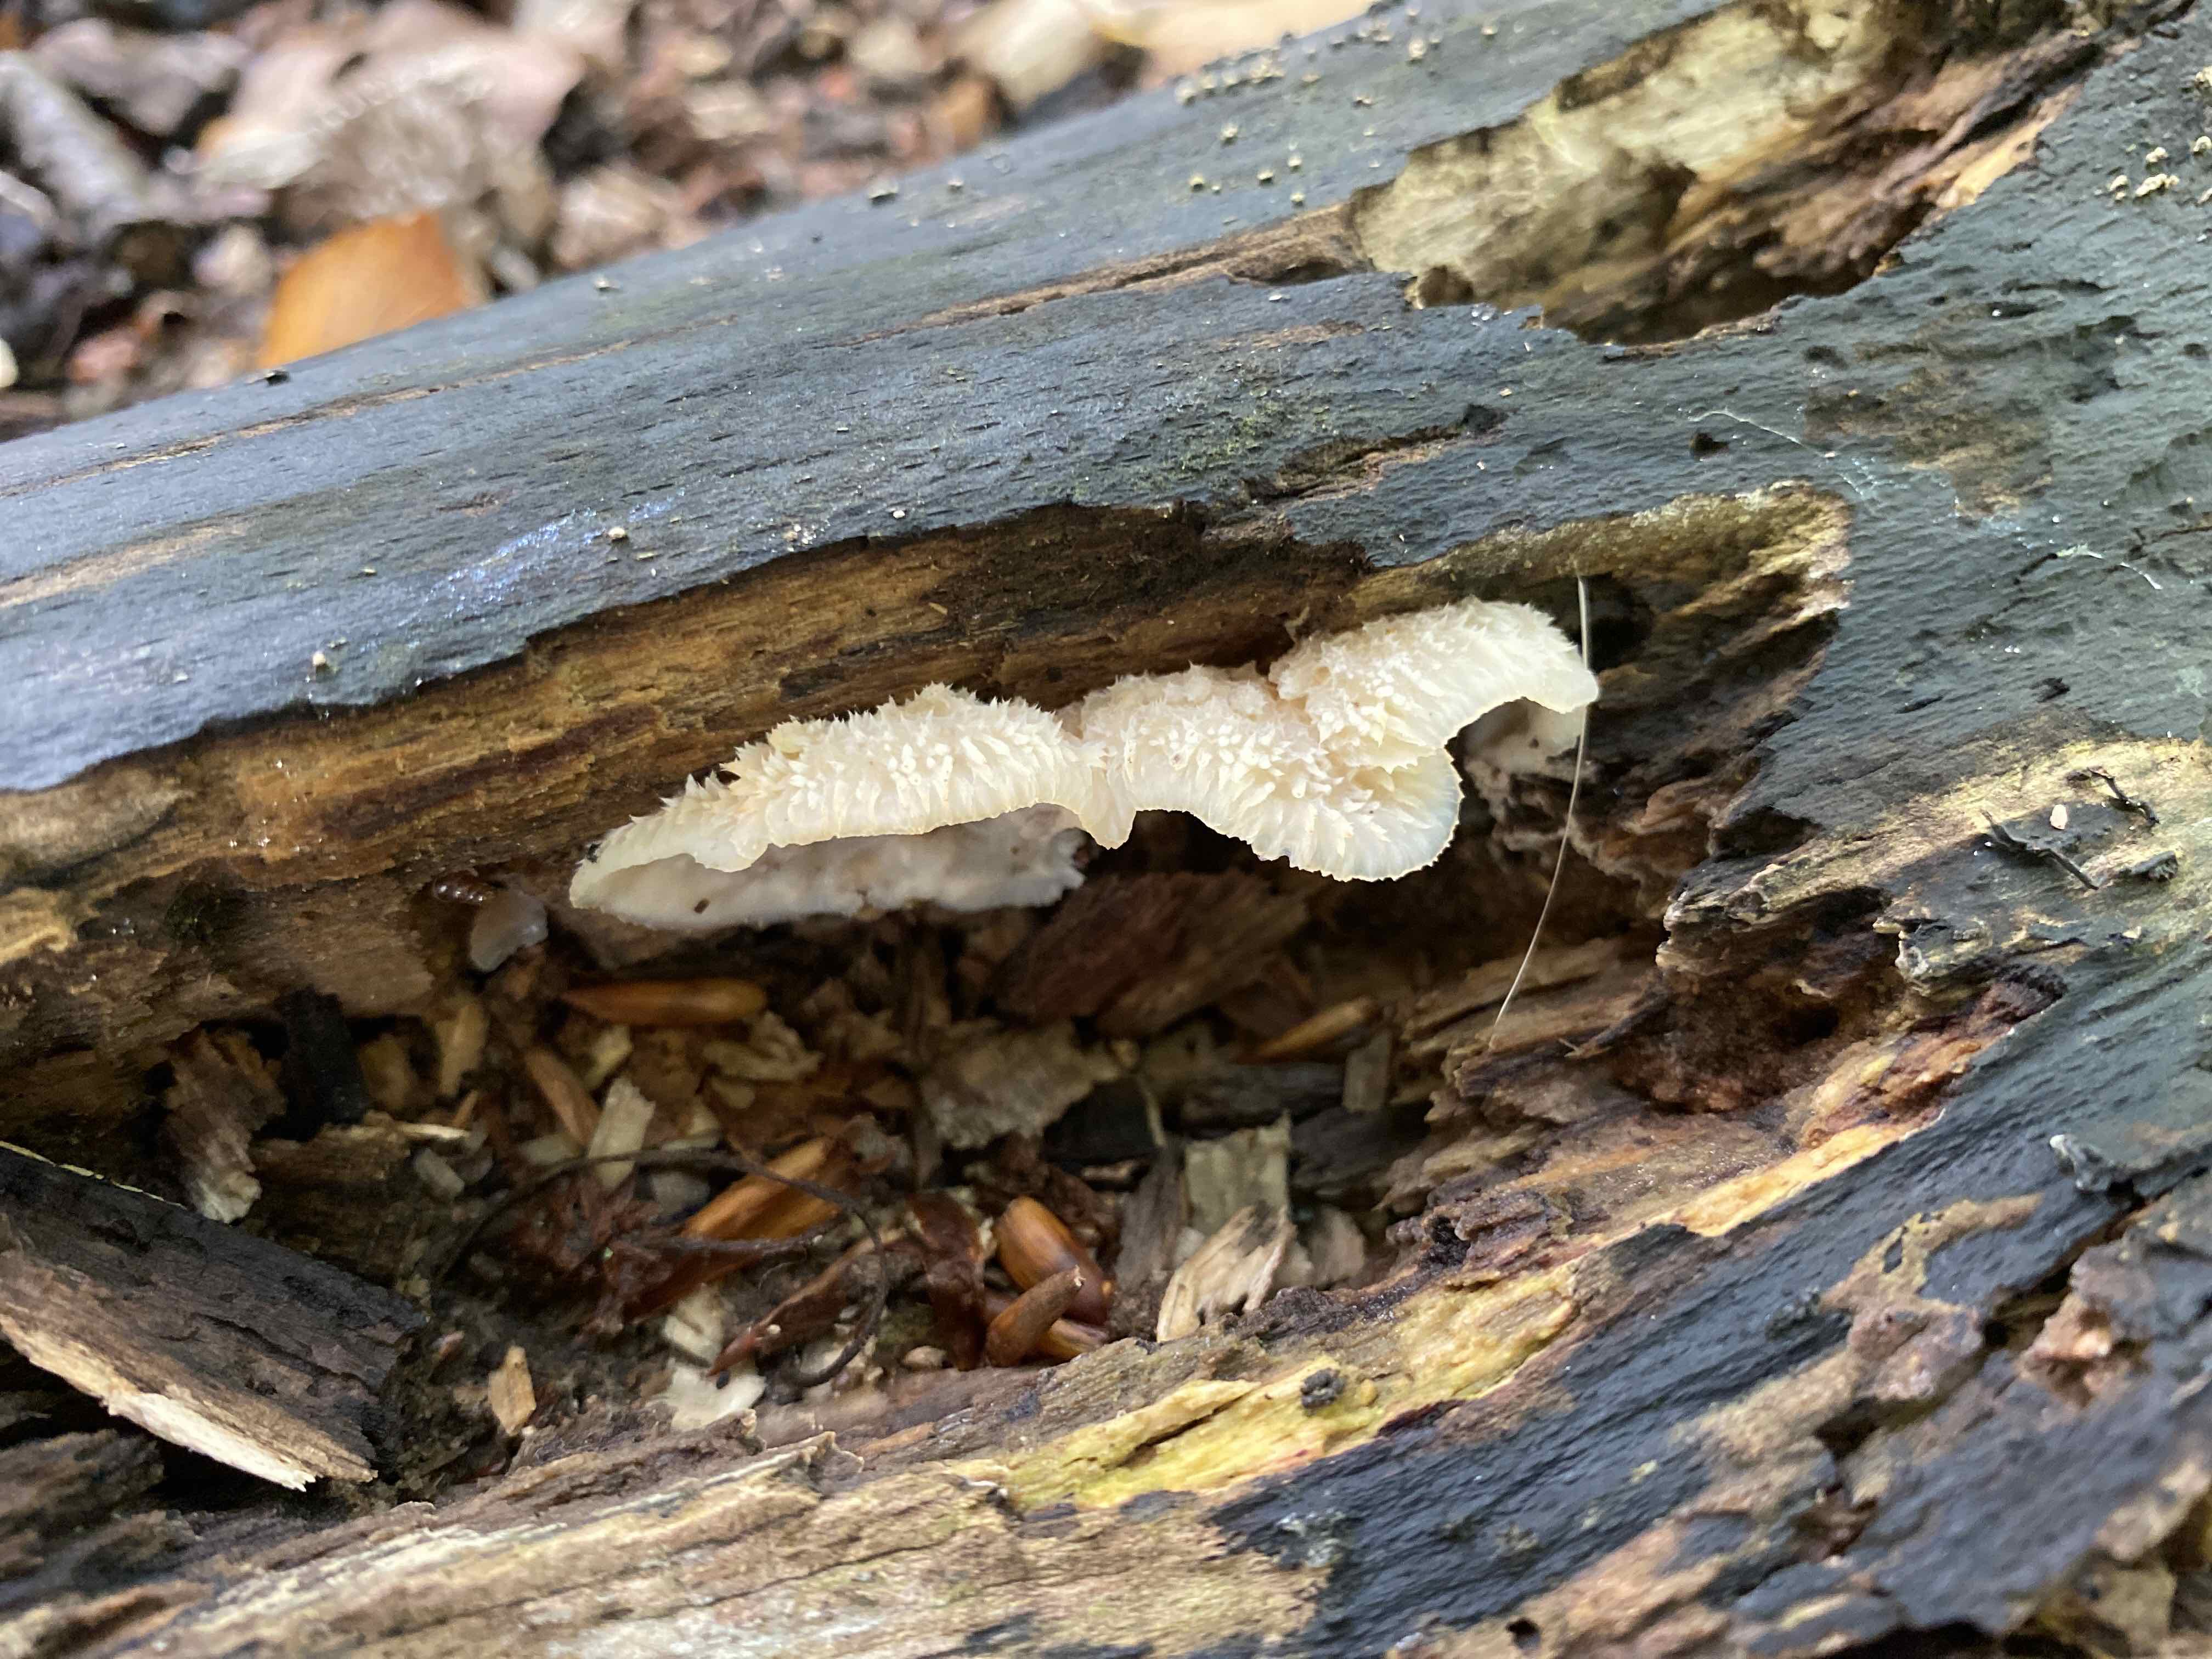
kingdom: Fungi
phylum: Basidiomycota
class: Agaricomycetes
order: Polyporales
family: Meruliaceae
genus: Phlebia
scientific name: Phlebia tremellosa
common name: bævrende åresvamp
